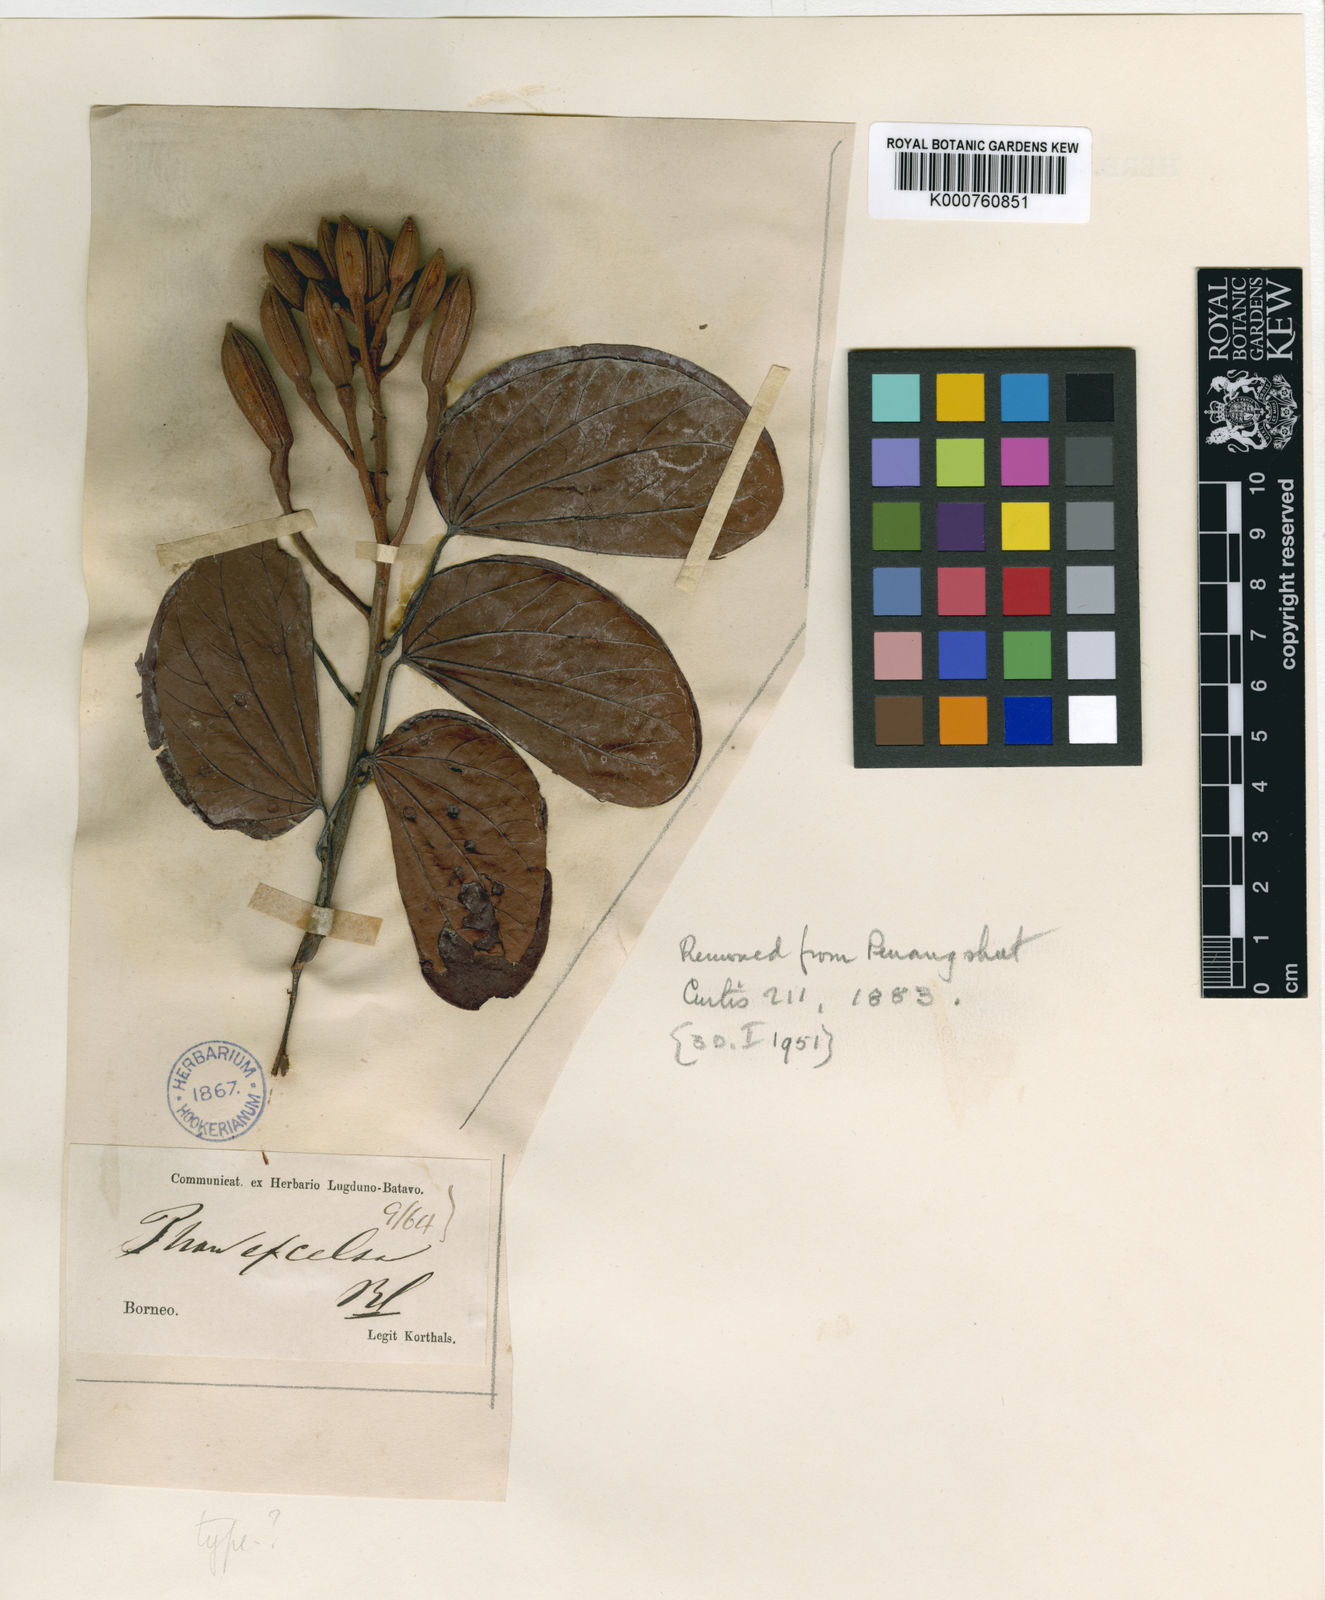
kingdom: Plantae
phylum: Tracheophyta
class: Magnoliopsida
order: Fabales
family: Fabaceae
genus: Phanera
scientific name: Phanera excelsa
